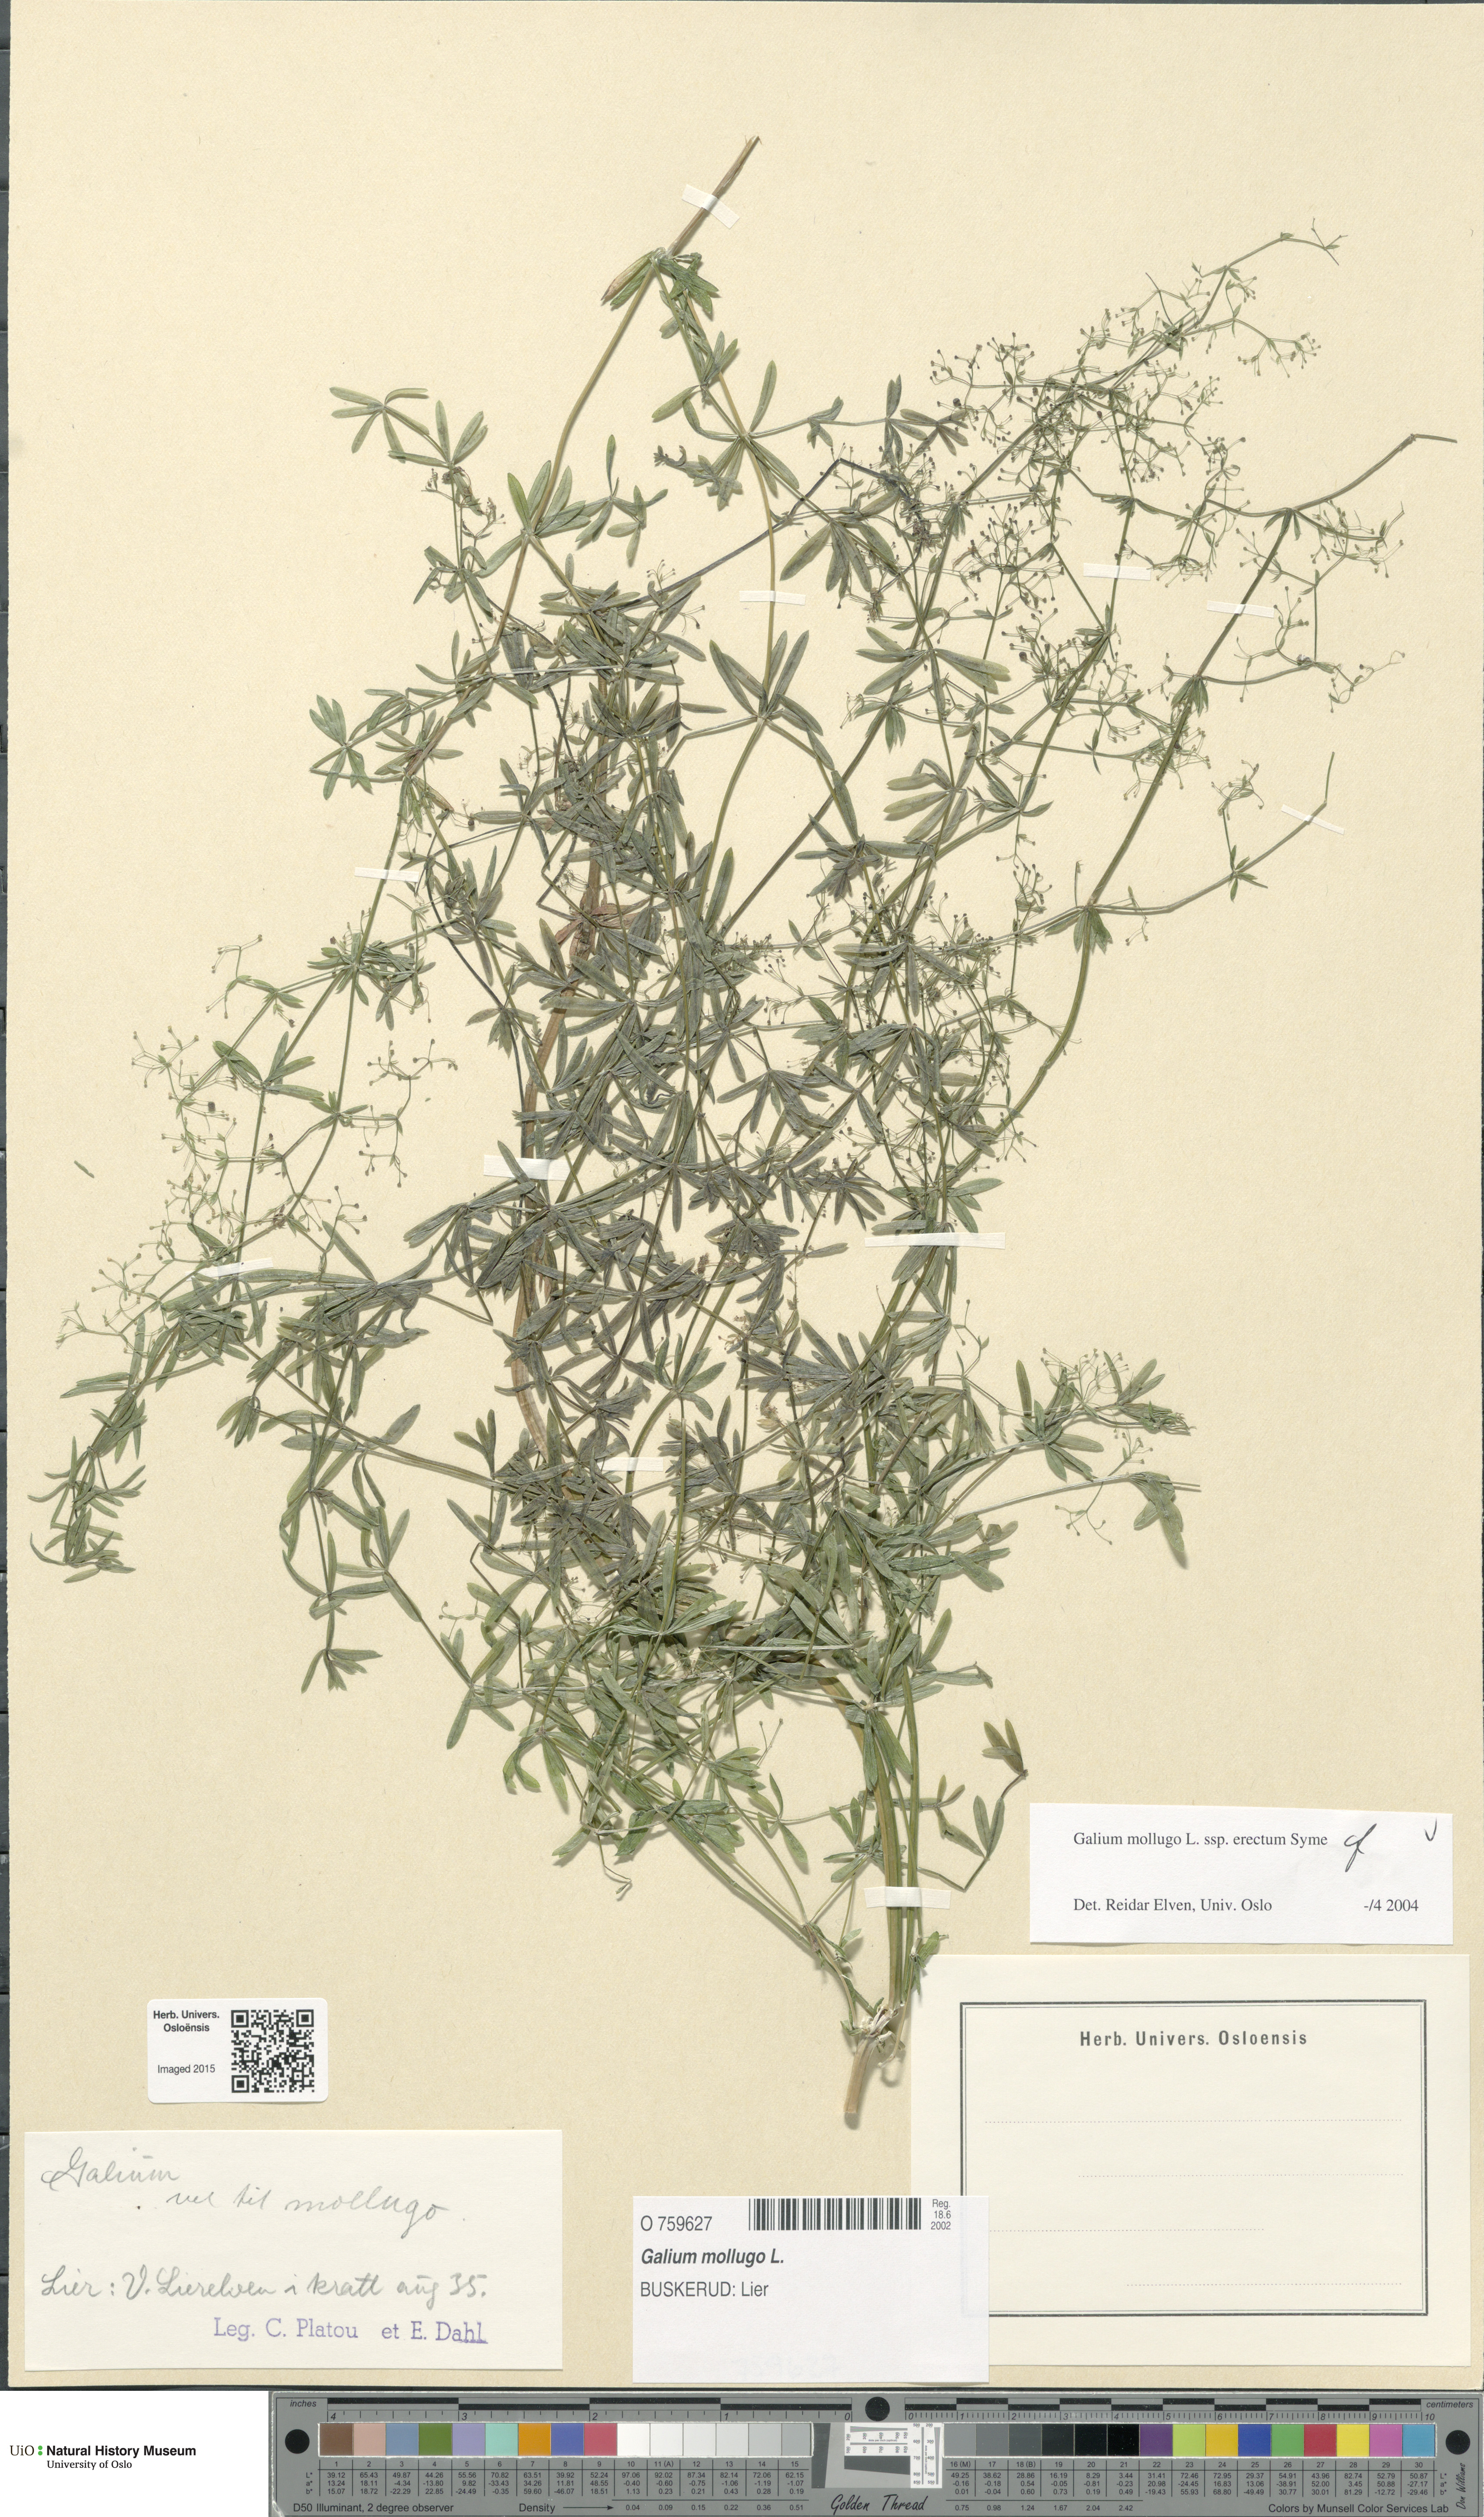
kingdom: Plantae
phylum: Tracheophyta
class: Magnoliopsida
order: Gentianales
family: Rubiaceae
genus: Galium
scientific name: Galium album
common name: White bedstraw
